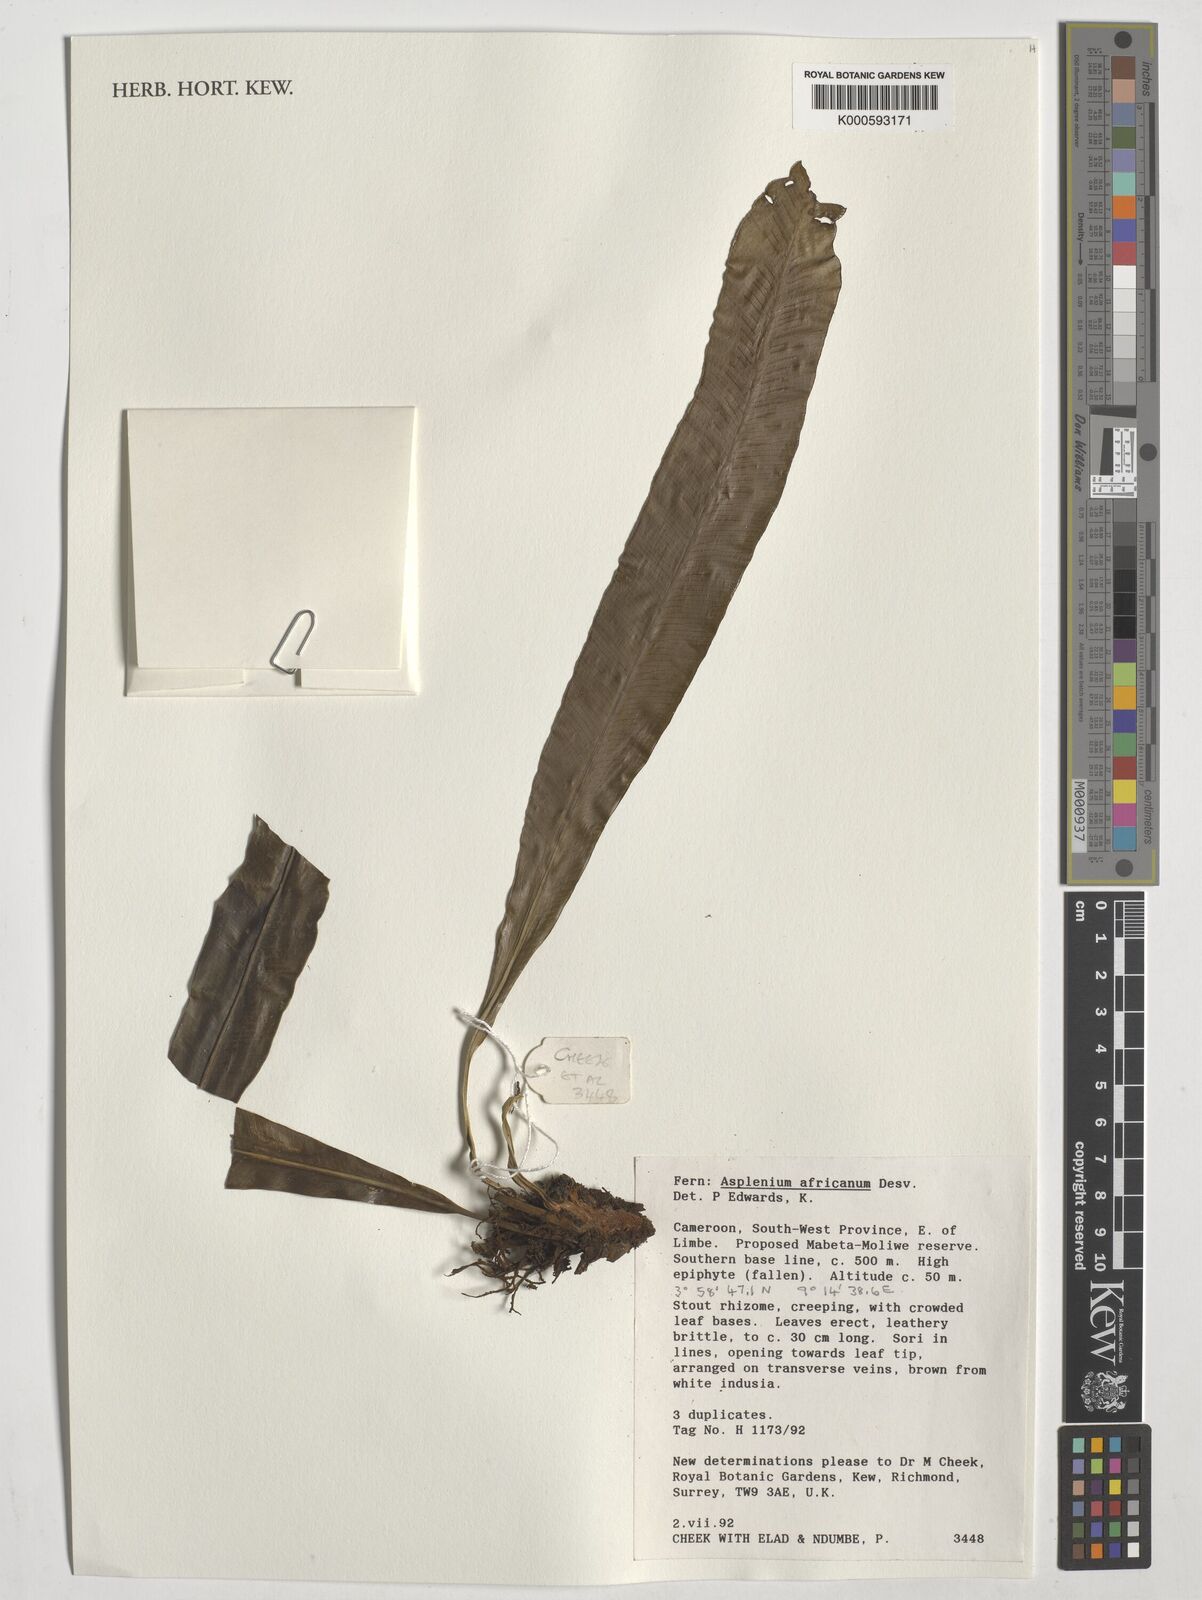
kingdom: Plantae
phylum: Tracheophyta
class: Polypodiopsida
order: Polypodiales
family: Aspleniaceae
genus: Asplenium
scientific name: Asplenium africanum
